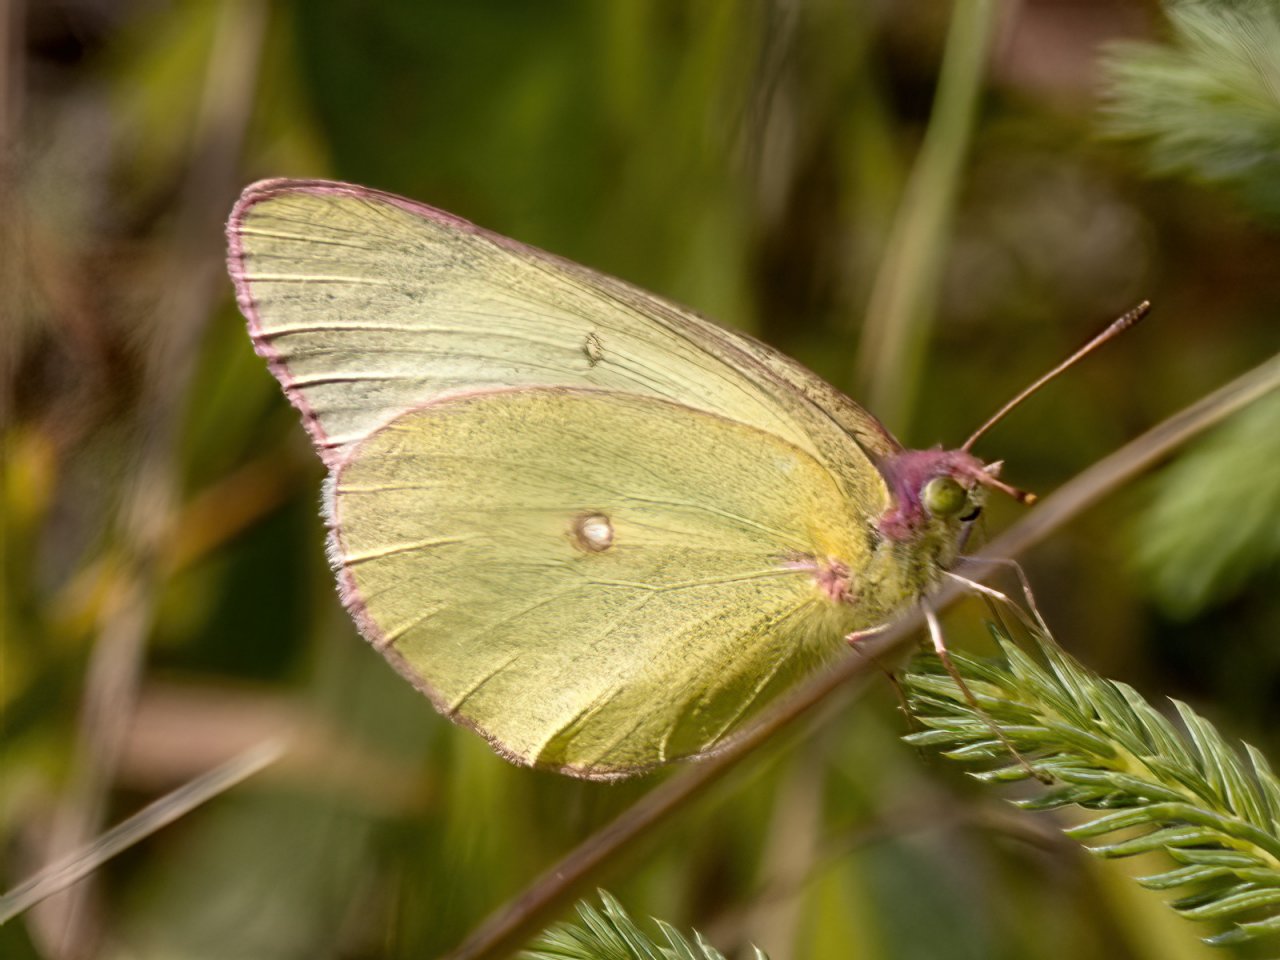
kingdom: Animalia
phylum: Arthropoda
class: Insecta
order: Lepidoptera
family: Pieridae
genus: Colias
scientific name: Colias interior
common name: Pink-edged Sulphur
